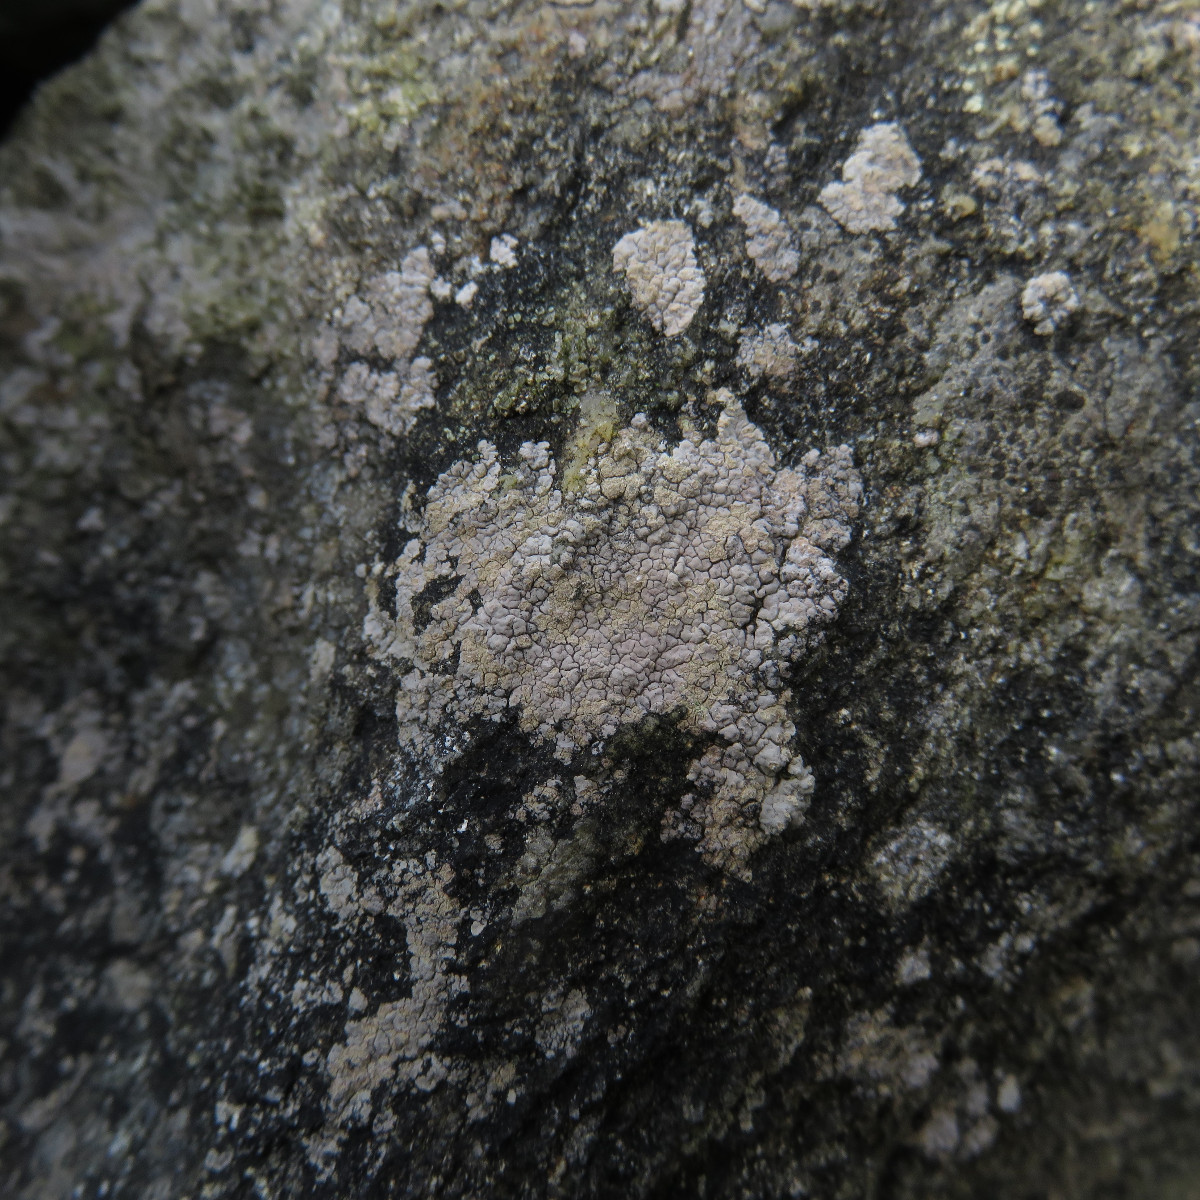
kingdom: Fungi
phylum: Ascomycota
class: Lecanoromycetes
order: Baeomycetales
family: Trapeliaceae
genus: Kleopowiella
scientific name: Kleopowiella placodioides
